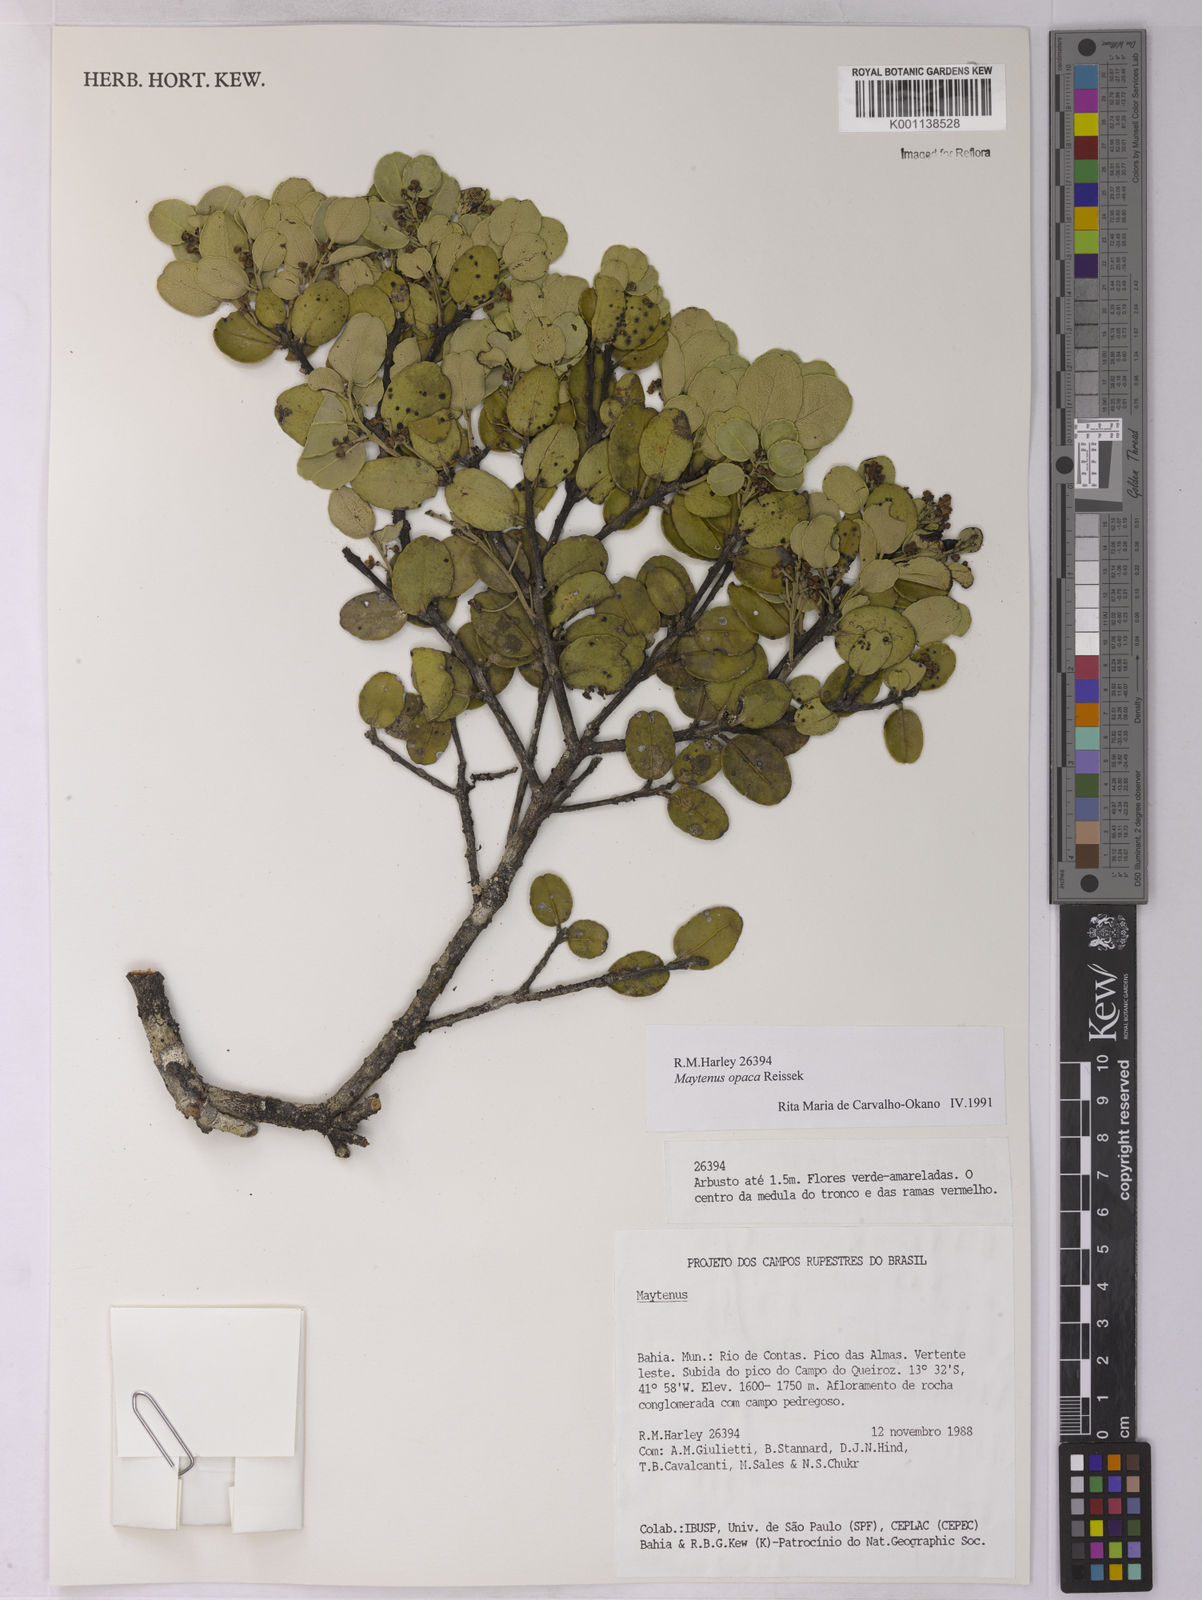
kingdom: Plantae
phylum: Tracheophyta
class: Magnoliopsida
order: Celastrales
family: Celastraceae
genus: Monteverdia
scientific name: Monteverdia opaca
